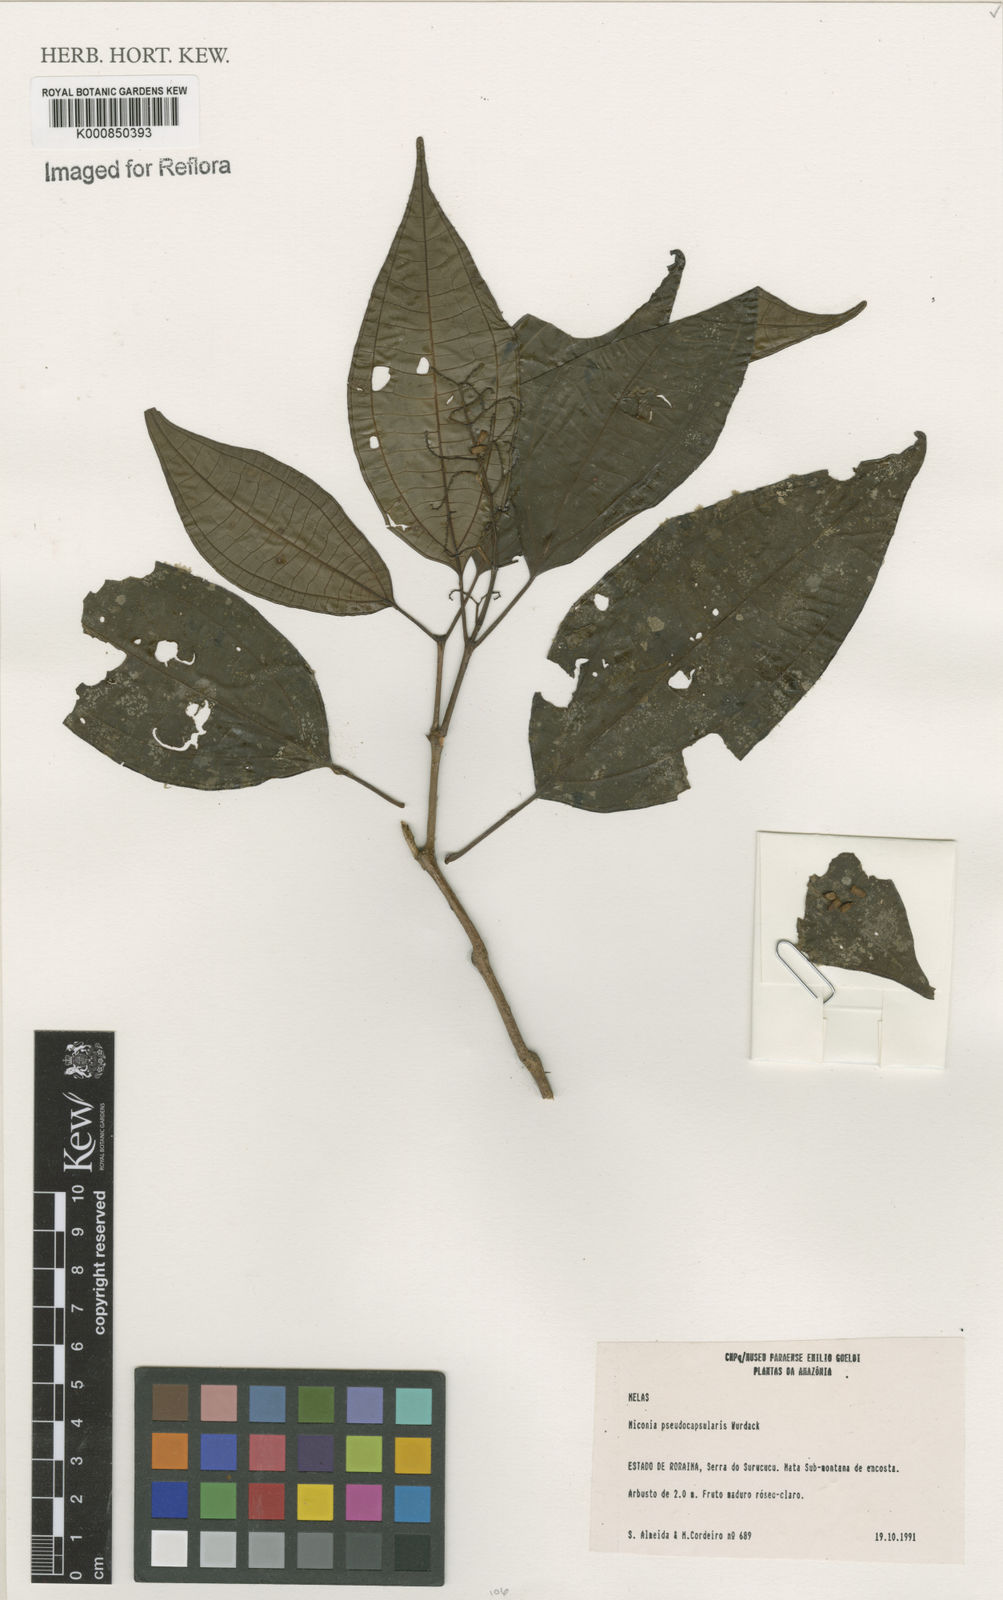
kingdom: Plantae
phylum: Tracheophyta
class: Magnoliopsida
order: Myrtales
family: Melastomataceae
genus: Miconia
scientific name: Miconia pseudocapsularis
